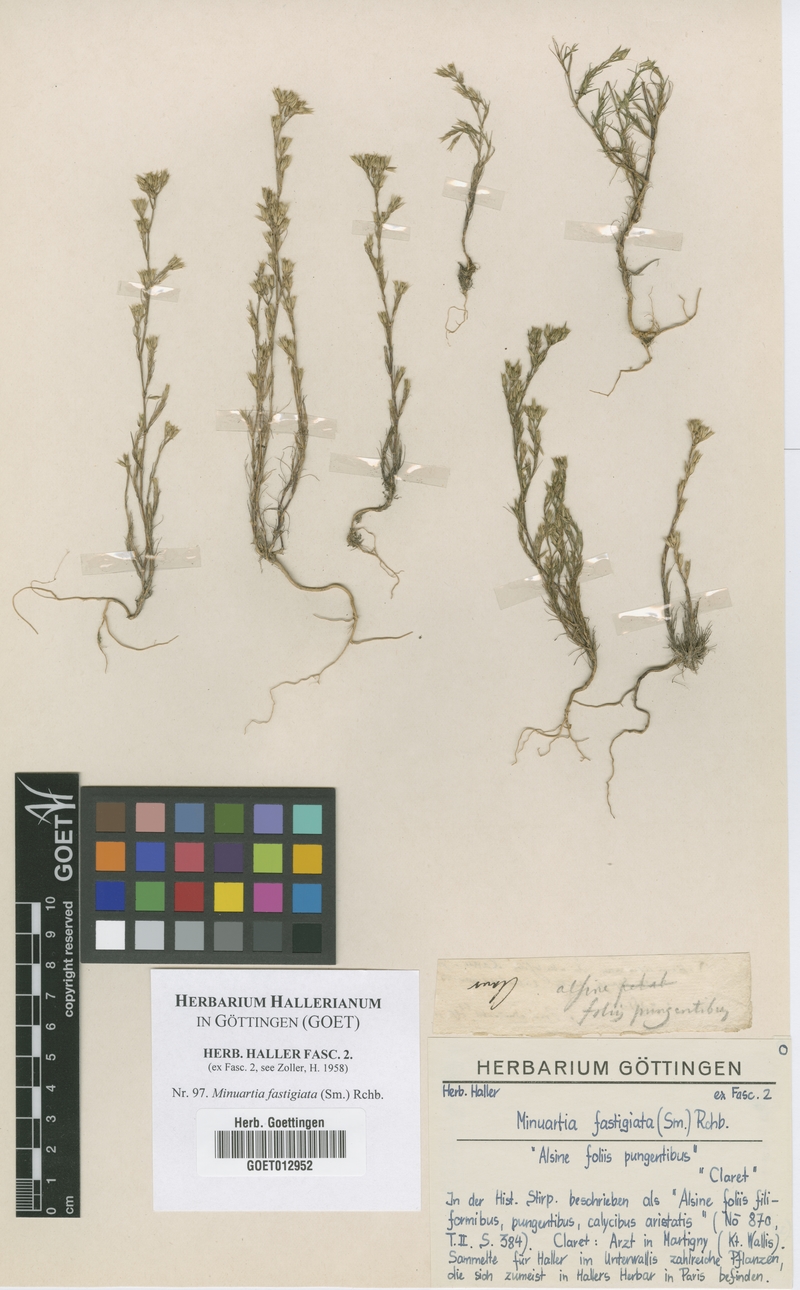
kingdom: Plantae
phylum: Tracheophyta
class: Magnoliopsida
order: Caryophyllales
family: Caryophyllaceae
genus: Minuartia
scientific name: Minuartia mucronata
